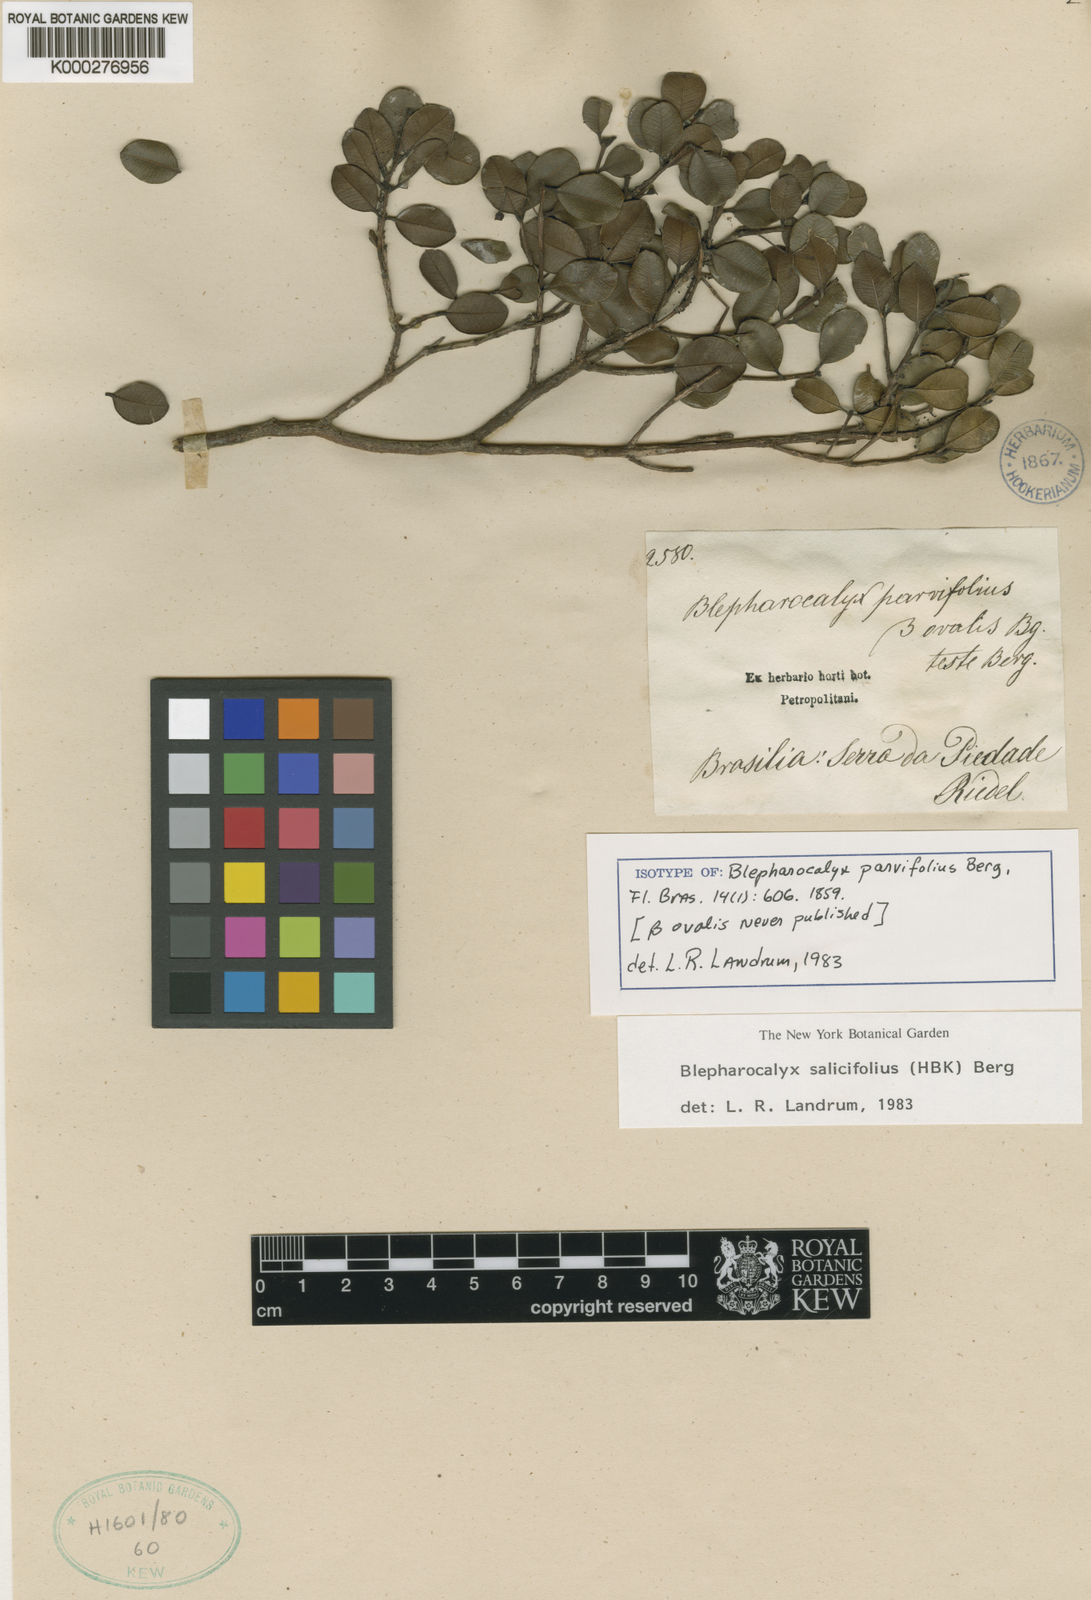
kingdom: Plantae
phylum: Tracheophyta
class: Magnoliopsida
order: Myrtales
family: Myrtaceae
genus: Blepharocalyx
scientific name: Blepharocalyx salicifolius
